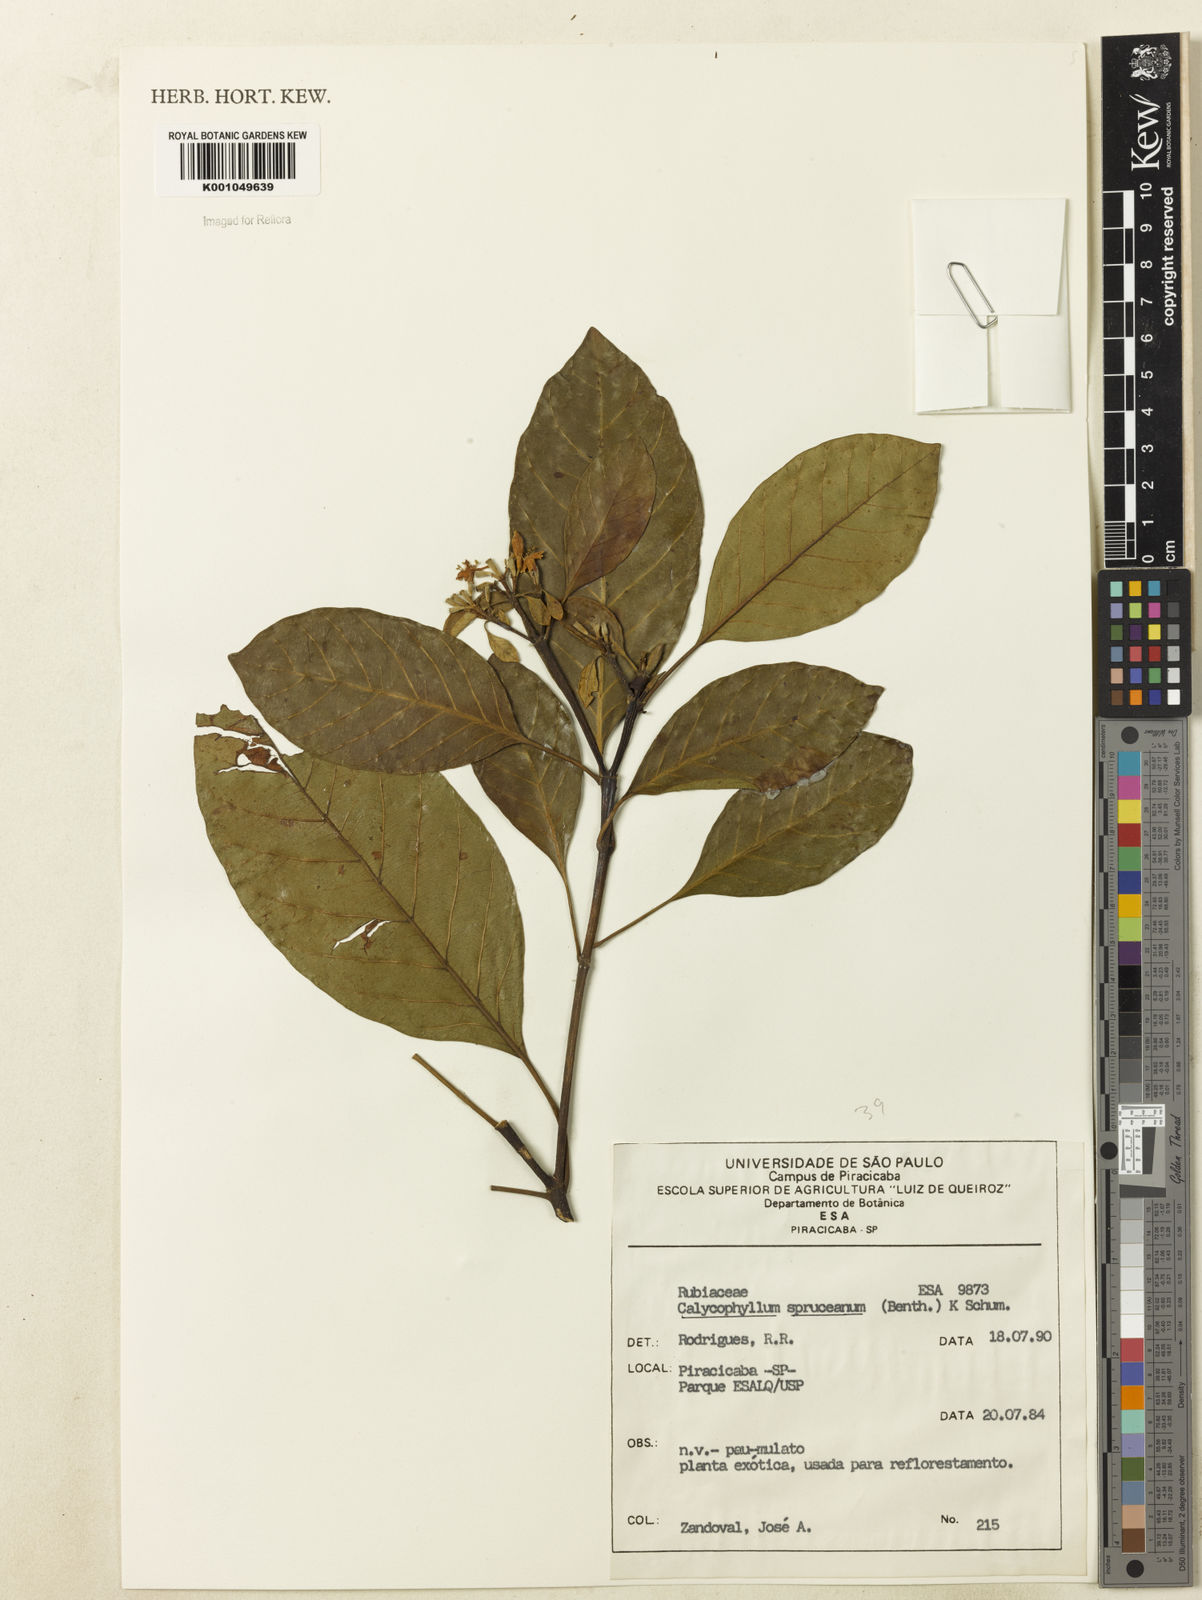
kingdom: Plantae
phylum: Tracheophyta
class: Magnoliopsida
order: Gentianales
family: Rubiaceae
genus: Calycophyllum
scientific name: Calycophyllum spruceanum
